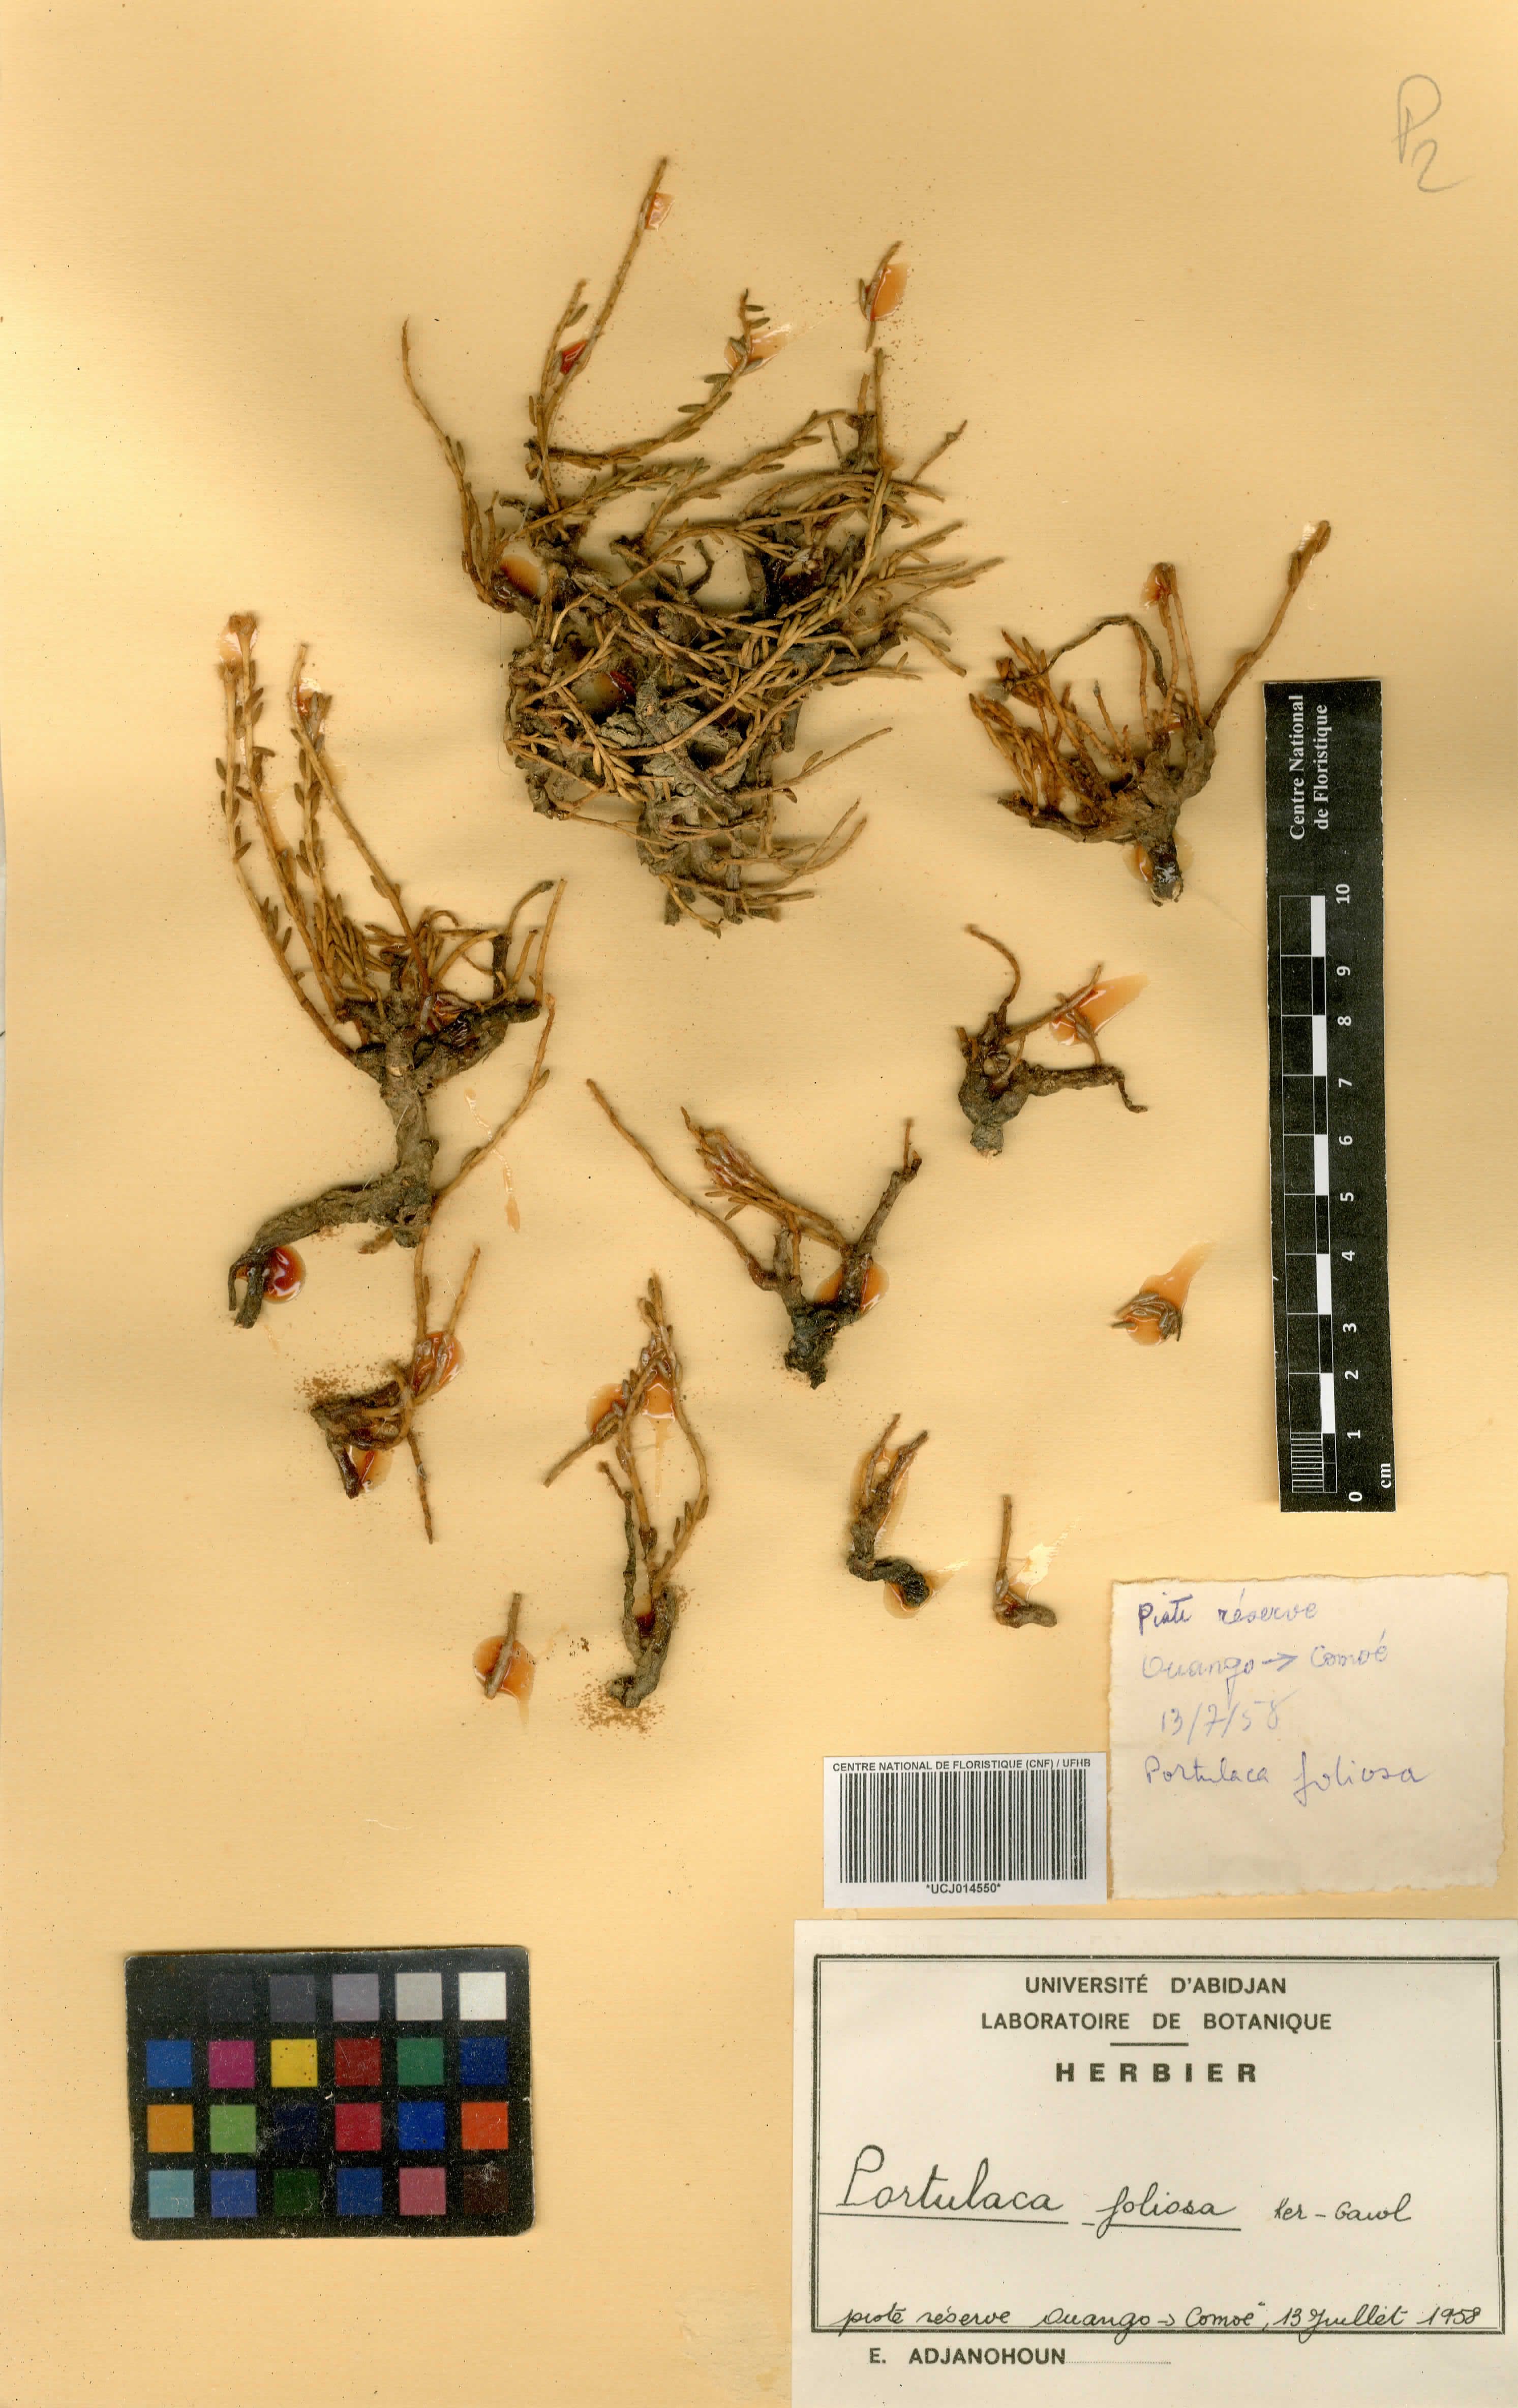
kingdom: Plantae
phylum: Tracheophyta
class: Magnoliopsida
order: Caryophyllales
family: Portulacaceae
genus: Portulaca
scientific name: Portulaca foliosa
